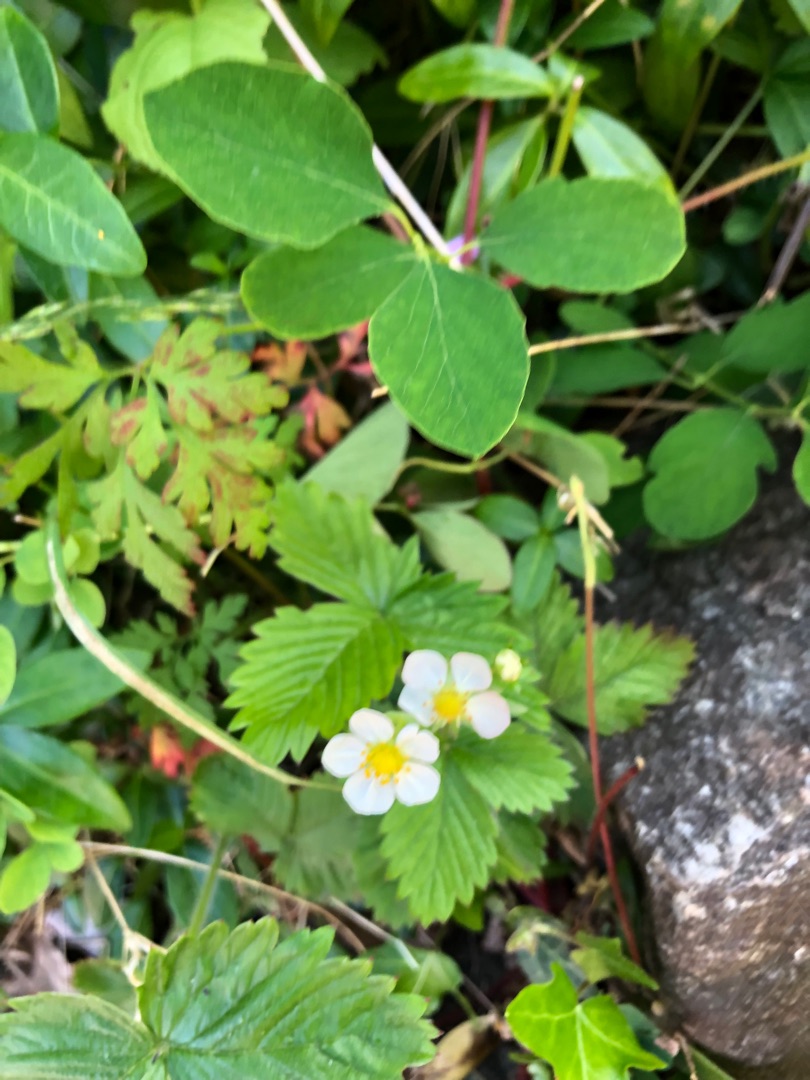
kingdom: Plantae
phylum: Tracheophyta
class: Magnoliopsida
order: Rosales
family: Rosaceae
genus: Fragaria
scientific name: Fragaria vesca
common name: Skov-jordbær
